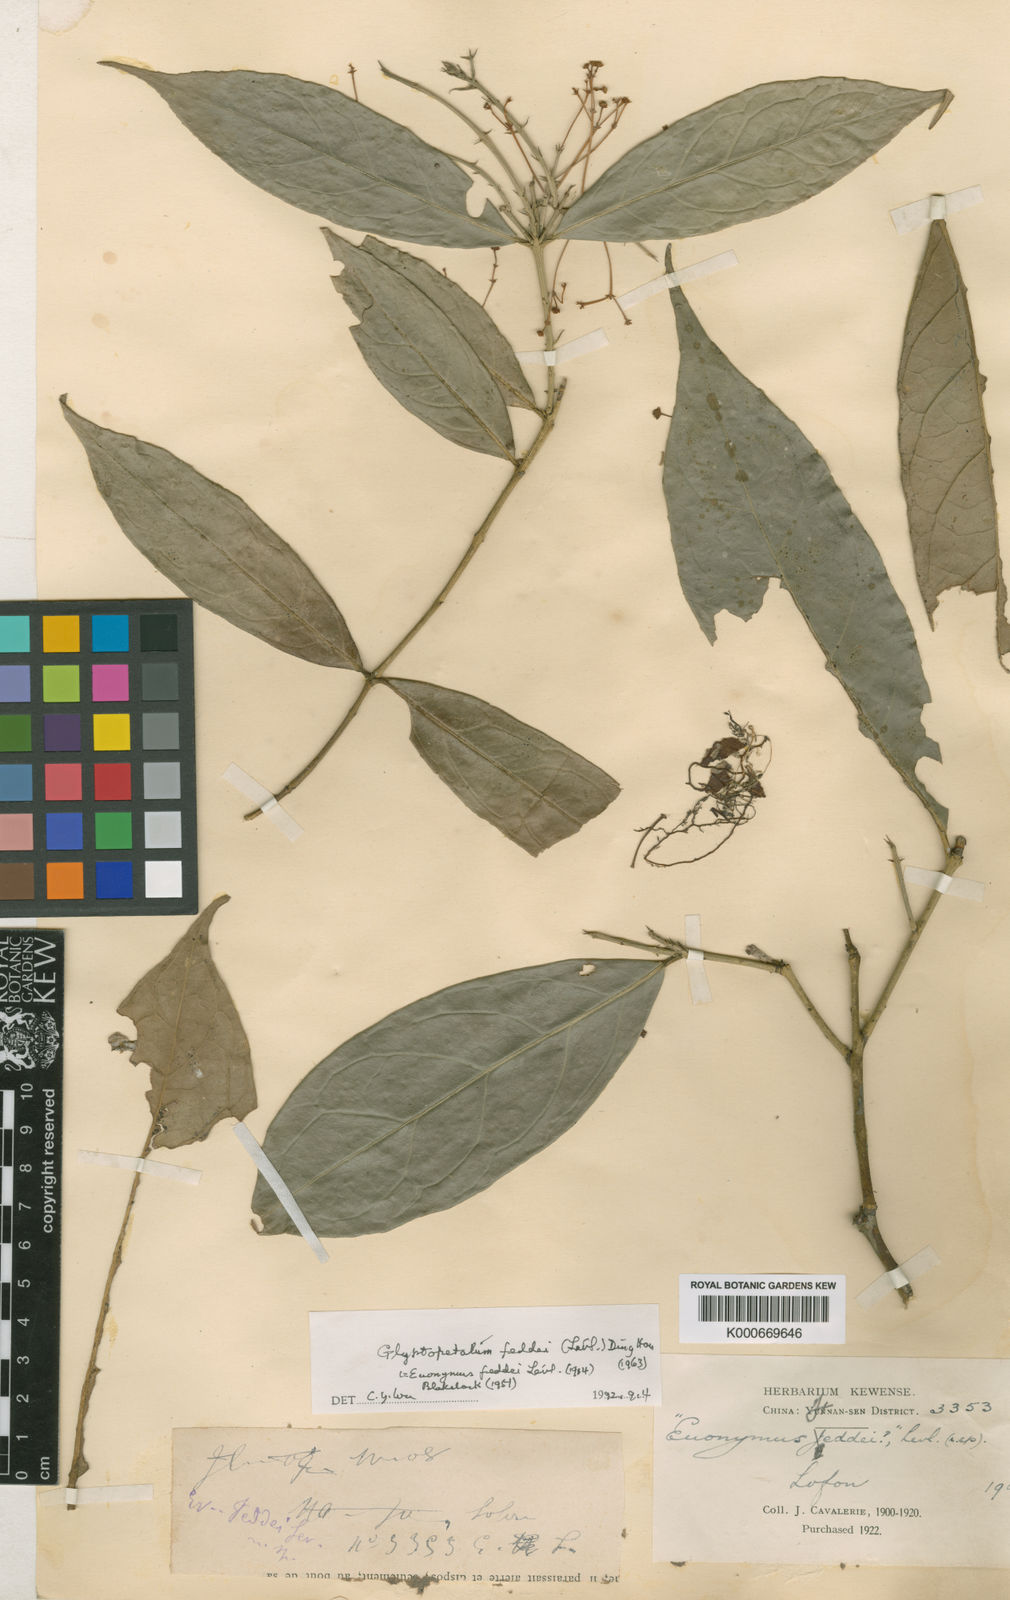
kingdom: Plantae
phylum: Tracheophyta
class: Magnoliopsida
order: Celastrales
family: Celastraceae
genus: Glyptopetalum
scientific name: Glyptopetalum
